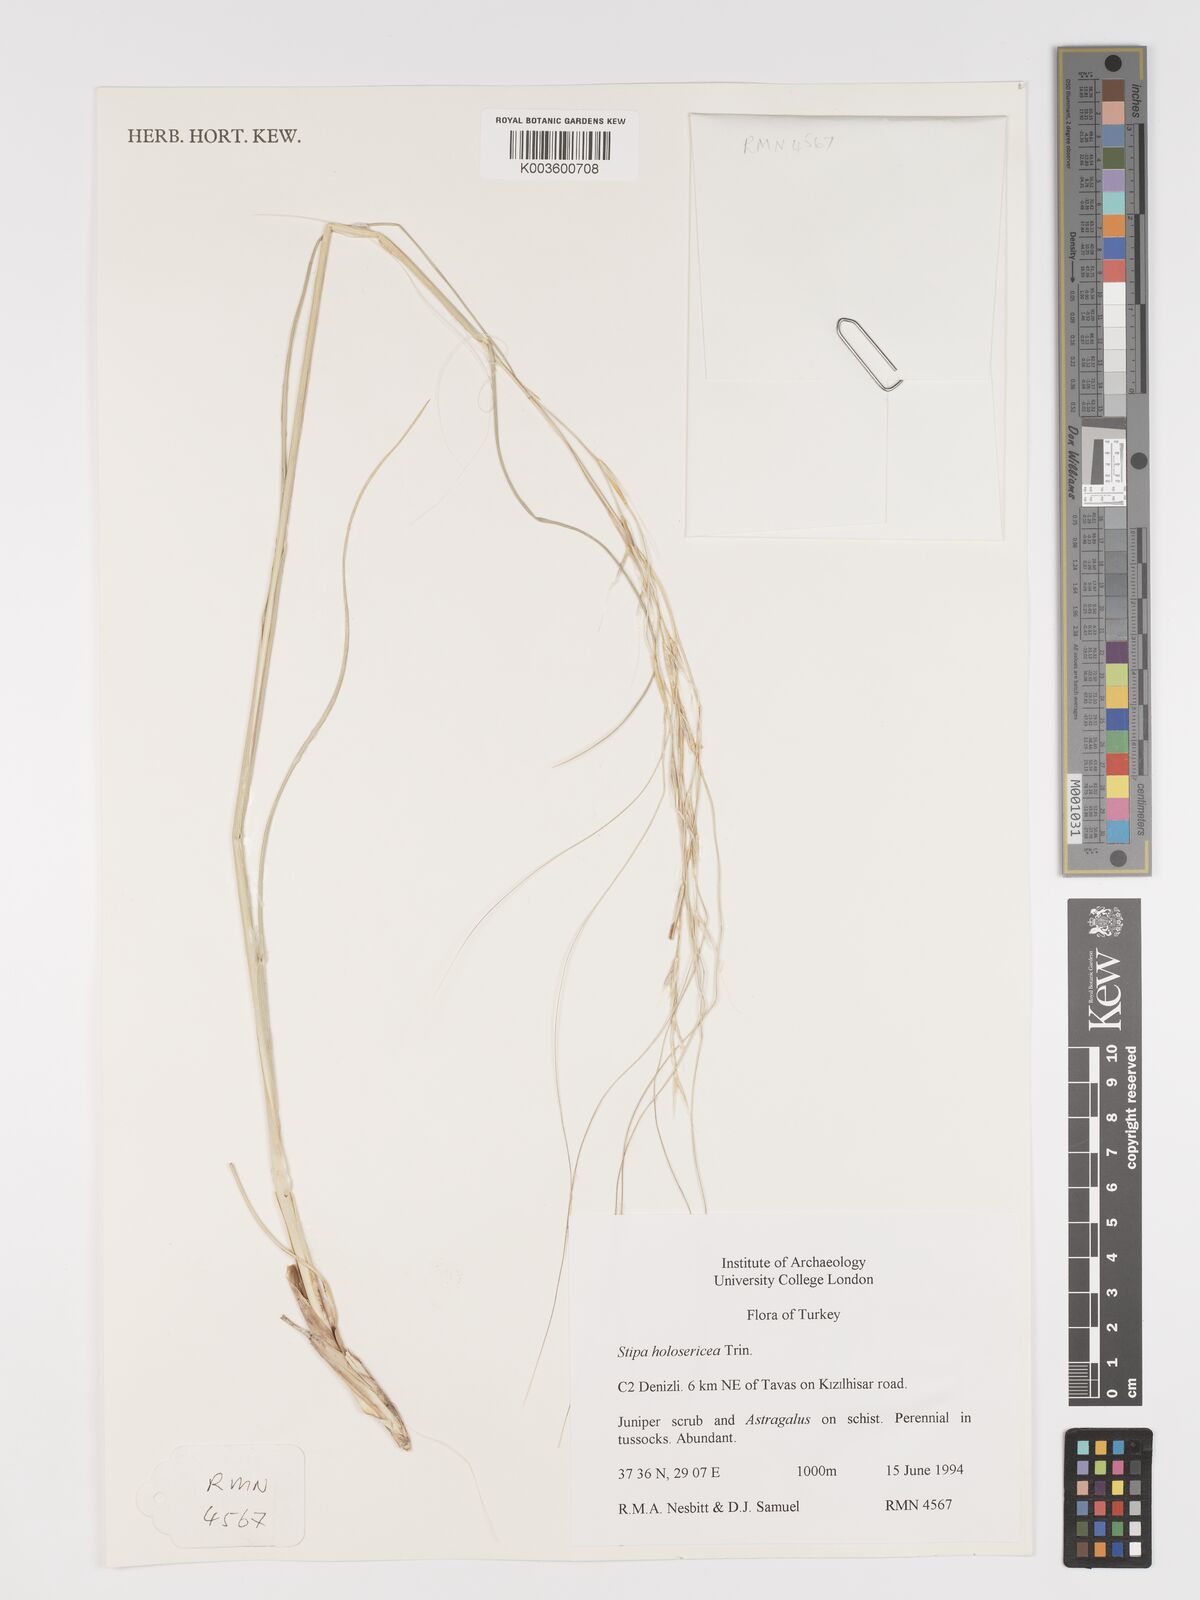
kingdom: Plantae
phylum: Tracheophyta
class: Liliopsida
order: Poales
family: Poaceae
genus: Stipa
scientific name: Stipa holosericea
